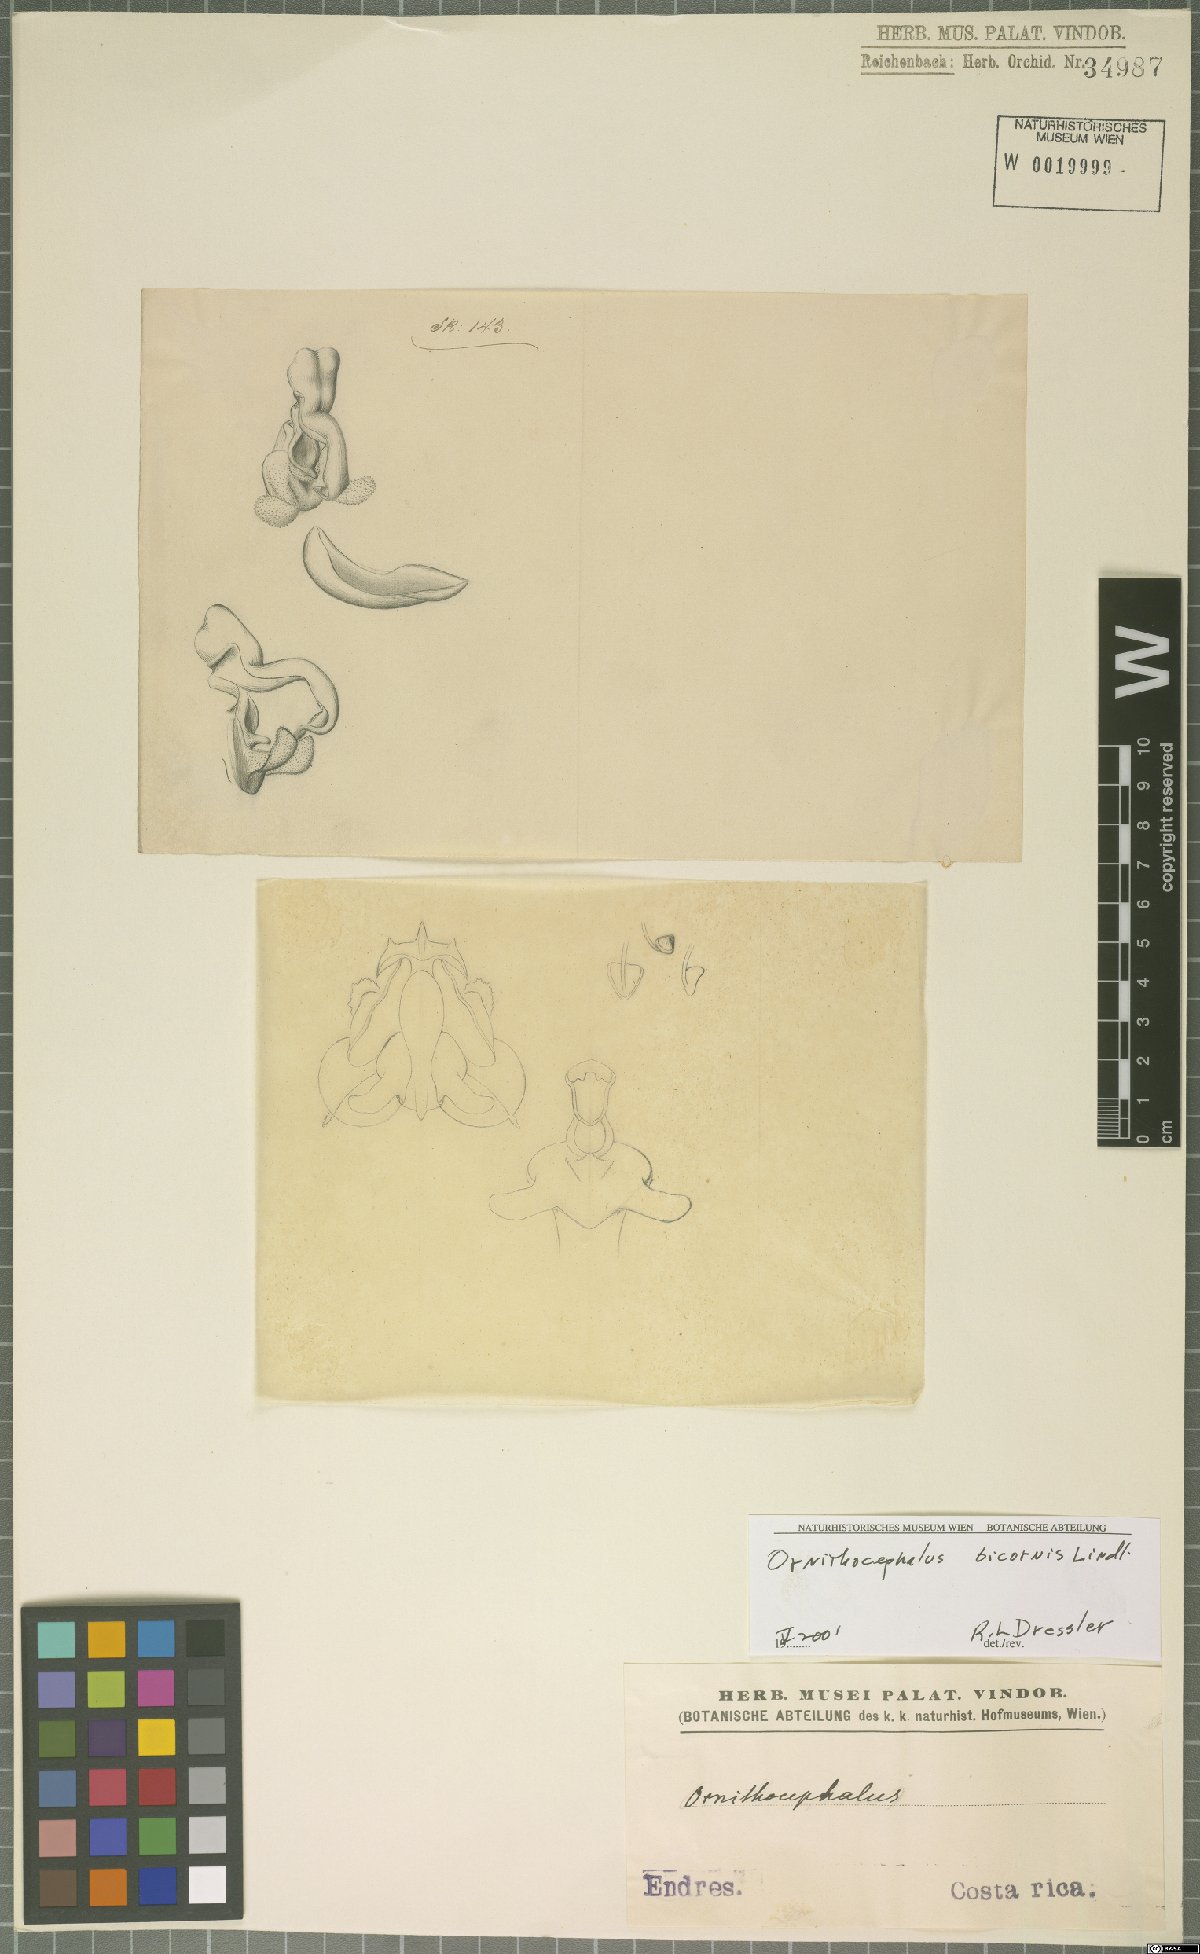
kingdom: Plantae
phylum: Tracheophyta
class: Liliopsida
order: Asparagales
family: Orchidaceae
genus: Ornithocephalus
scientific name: Ornithocephalus bicornis
